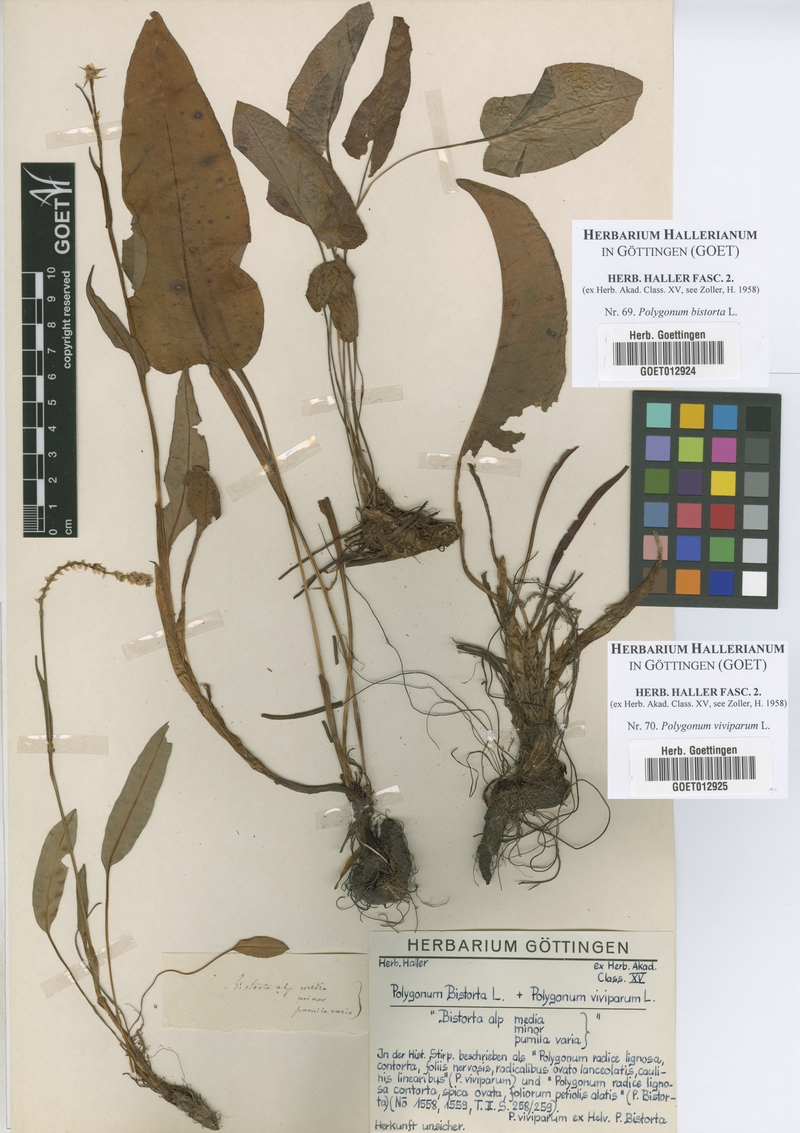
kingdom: Plantae
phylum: Tracheophyta
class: Magnoliopsida
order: Caryophyllales
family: Polygonaceae
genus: Bistorta
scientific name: Bistorta officinalis
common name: Common bistort
